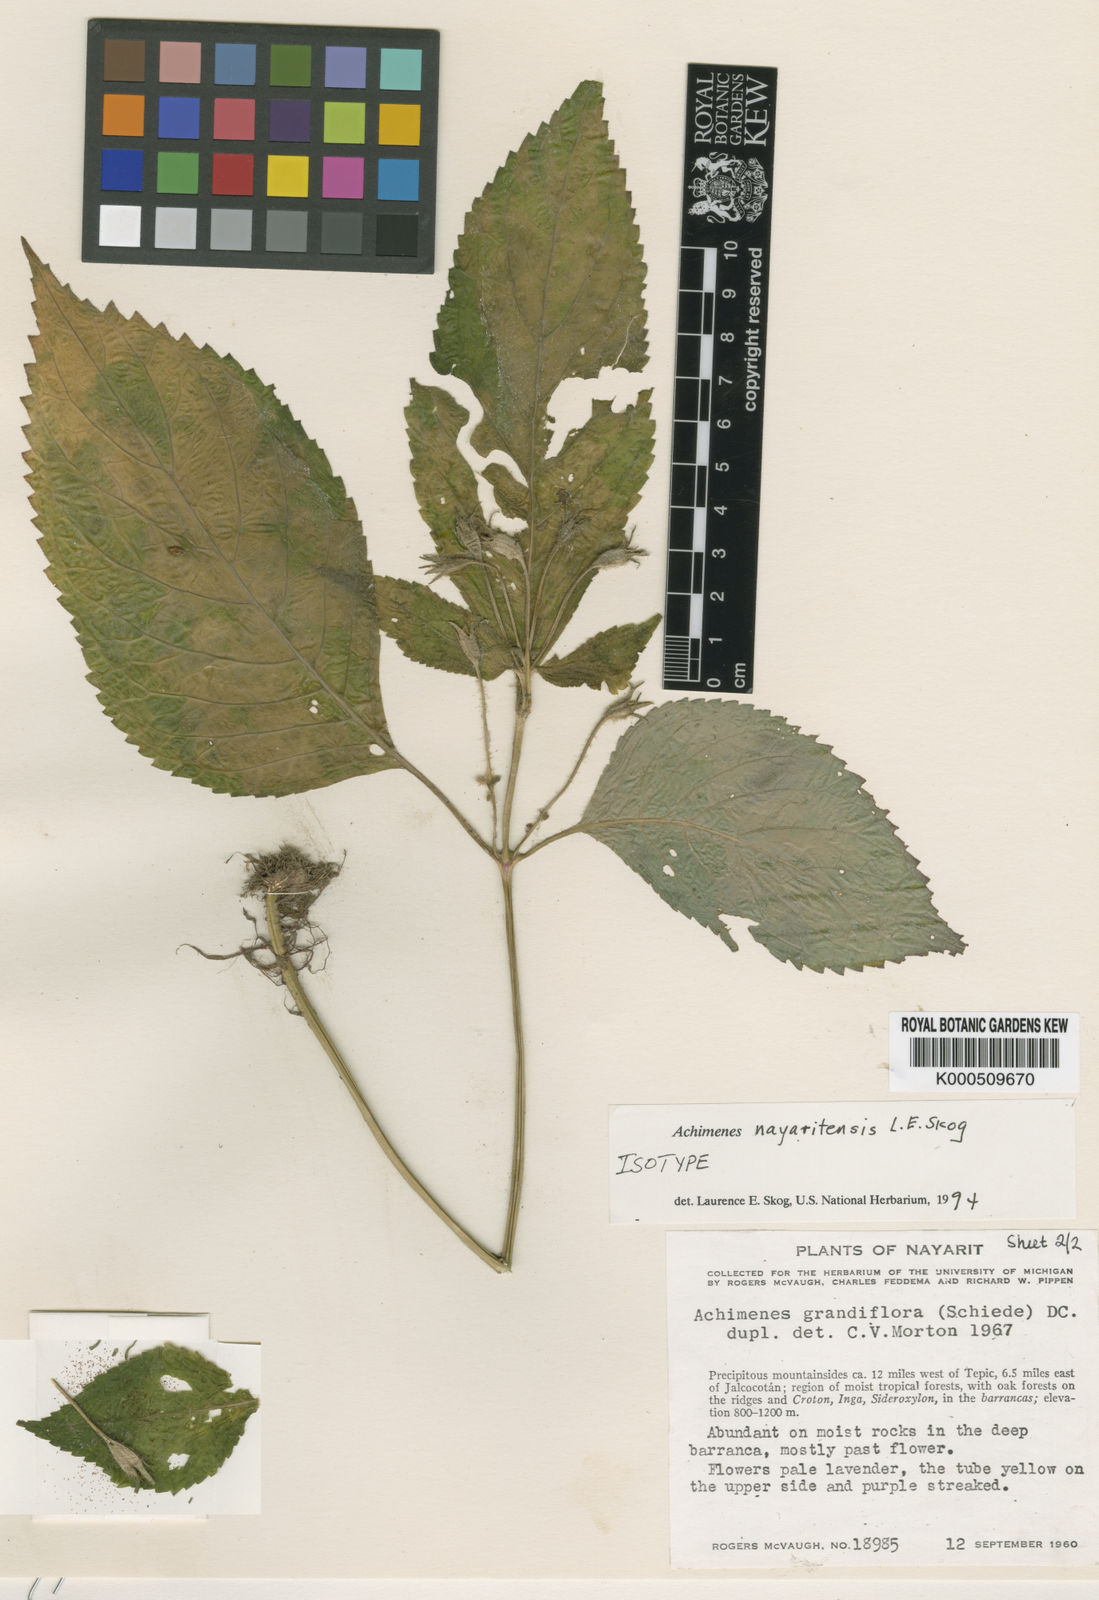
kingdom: Plantae
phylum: Tracheophyta
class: Magnoliopsida
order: Lamiales
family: Gesneriaceae
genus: Achimenes
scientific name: Achimenes nayaritensis
